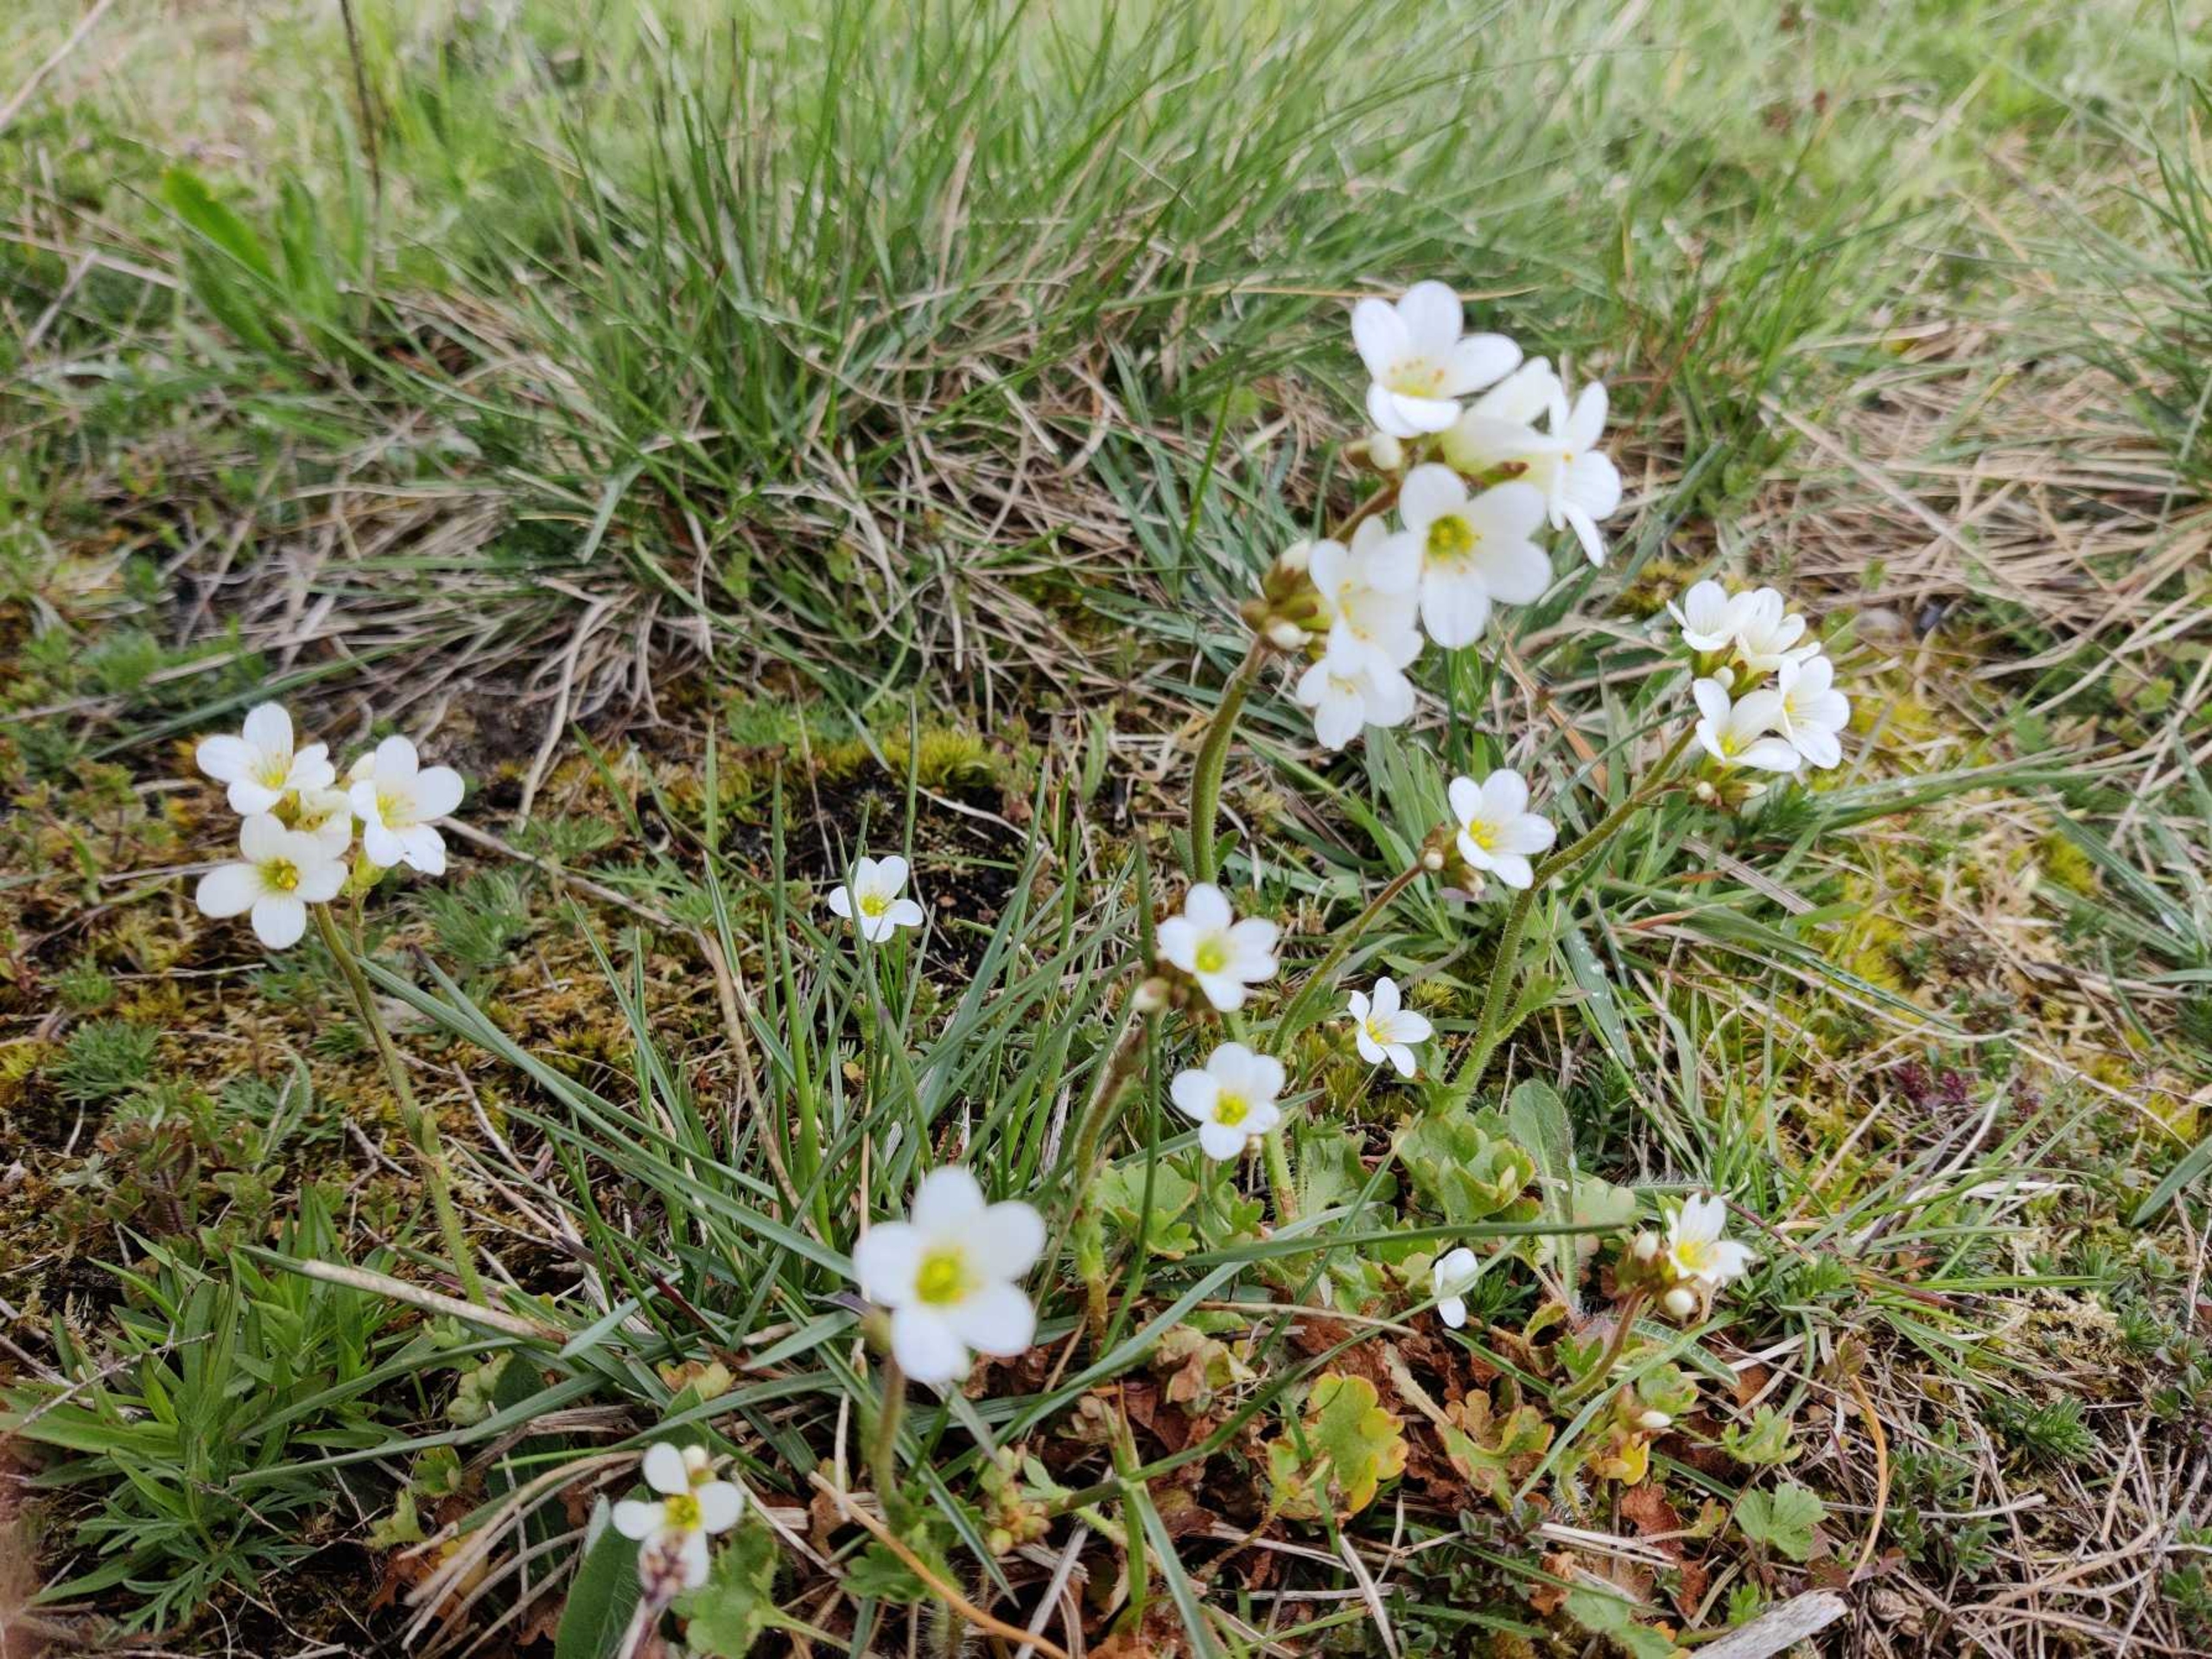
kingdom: Plantae
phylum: Tracheophyta
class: Magnoliopsida
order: Saxifragales
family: Saxifragaceae
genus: Saxifraga
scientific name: Saxifraga granulata
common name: Kornet stenbræk
